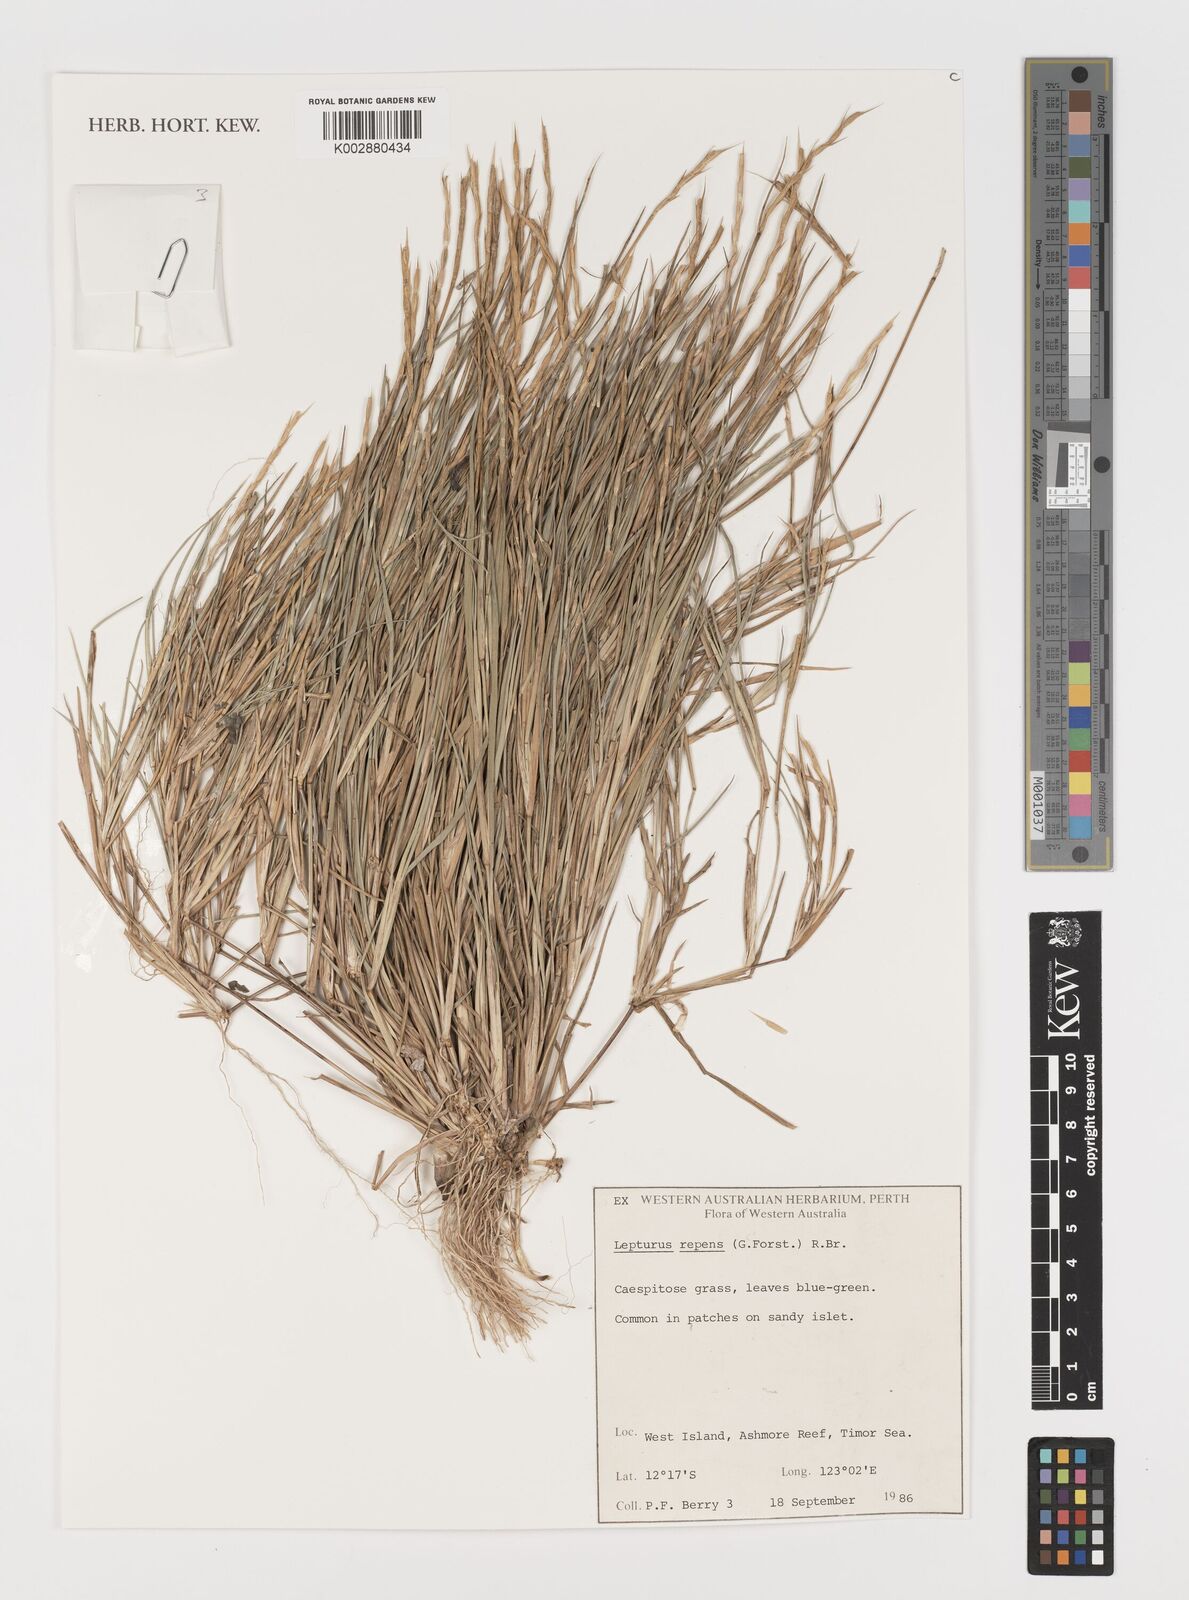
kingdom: Plantae
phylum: Tracheophyta
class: Liliopsida
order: Poales
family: Poaceae
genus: Lepturus
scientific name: Lepturus repens
